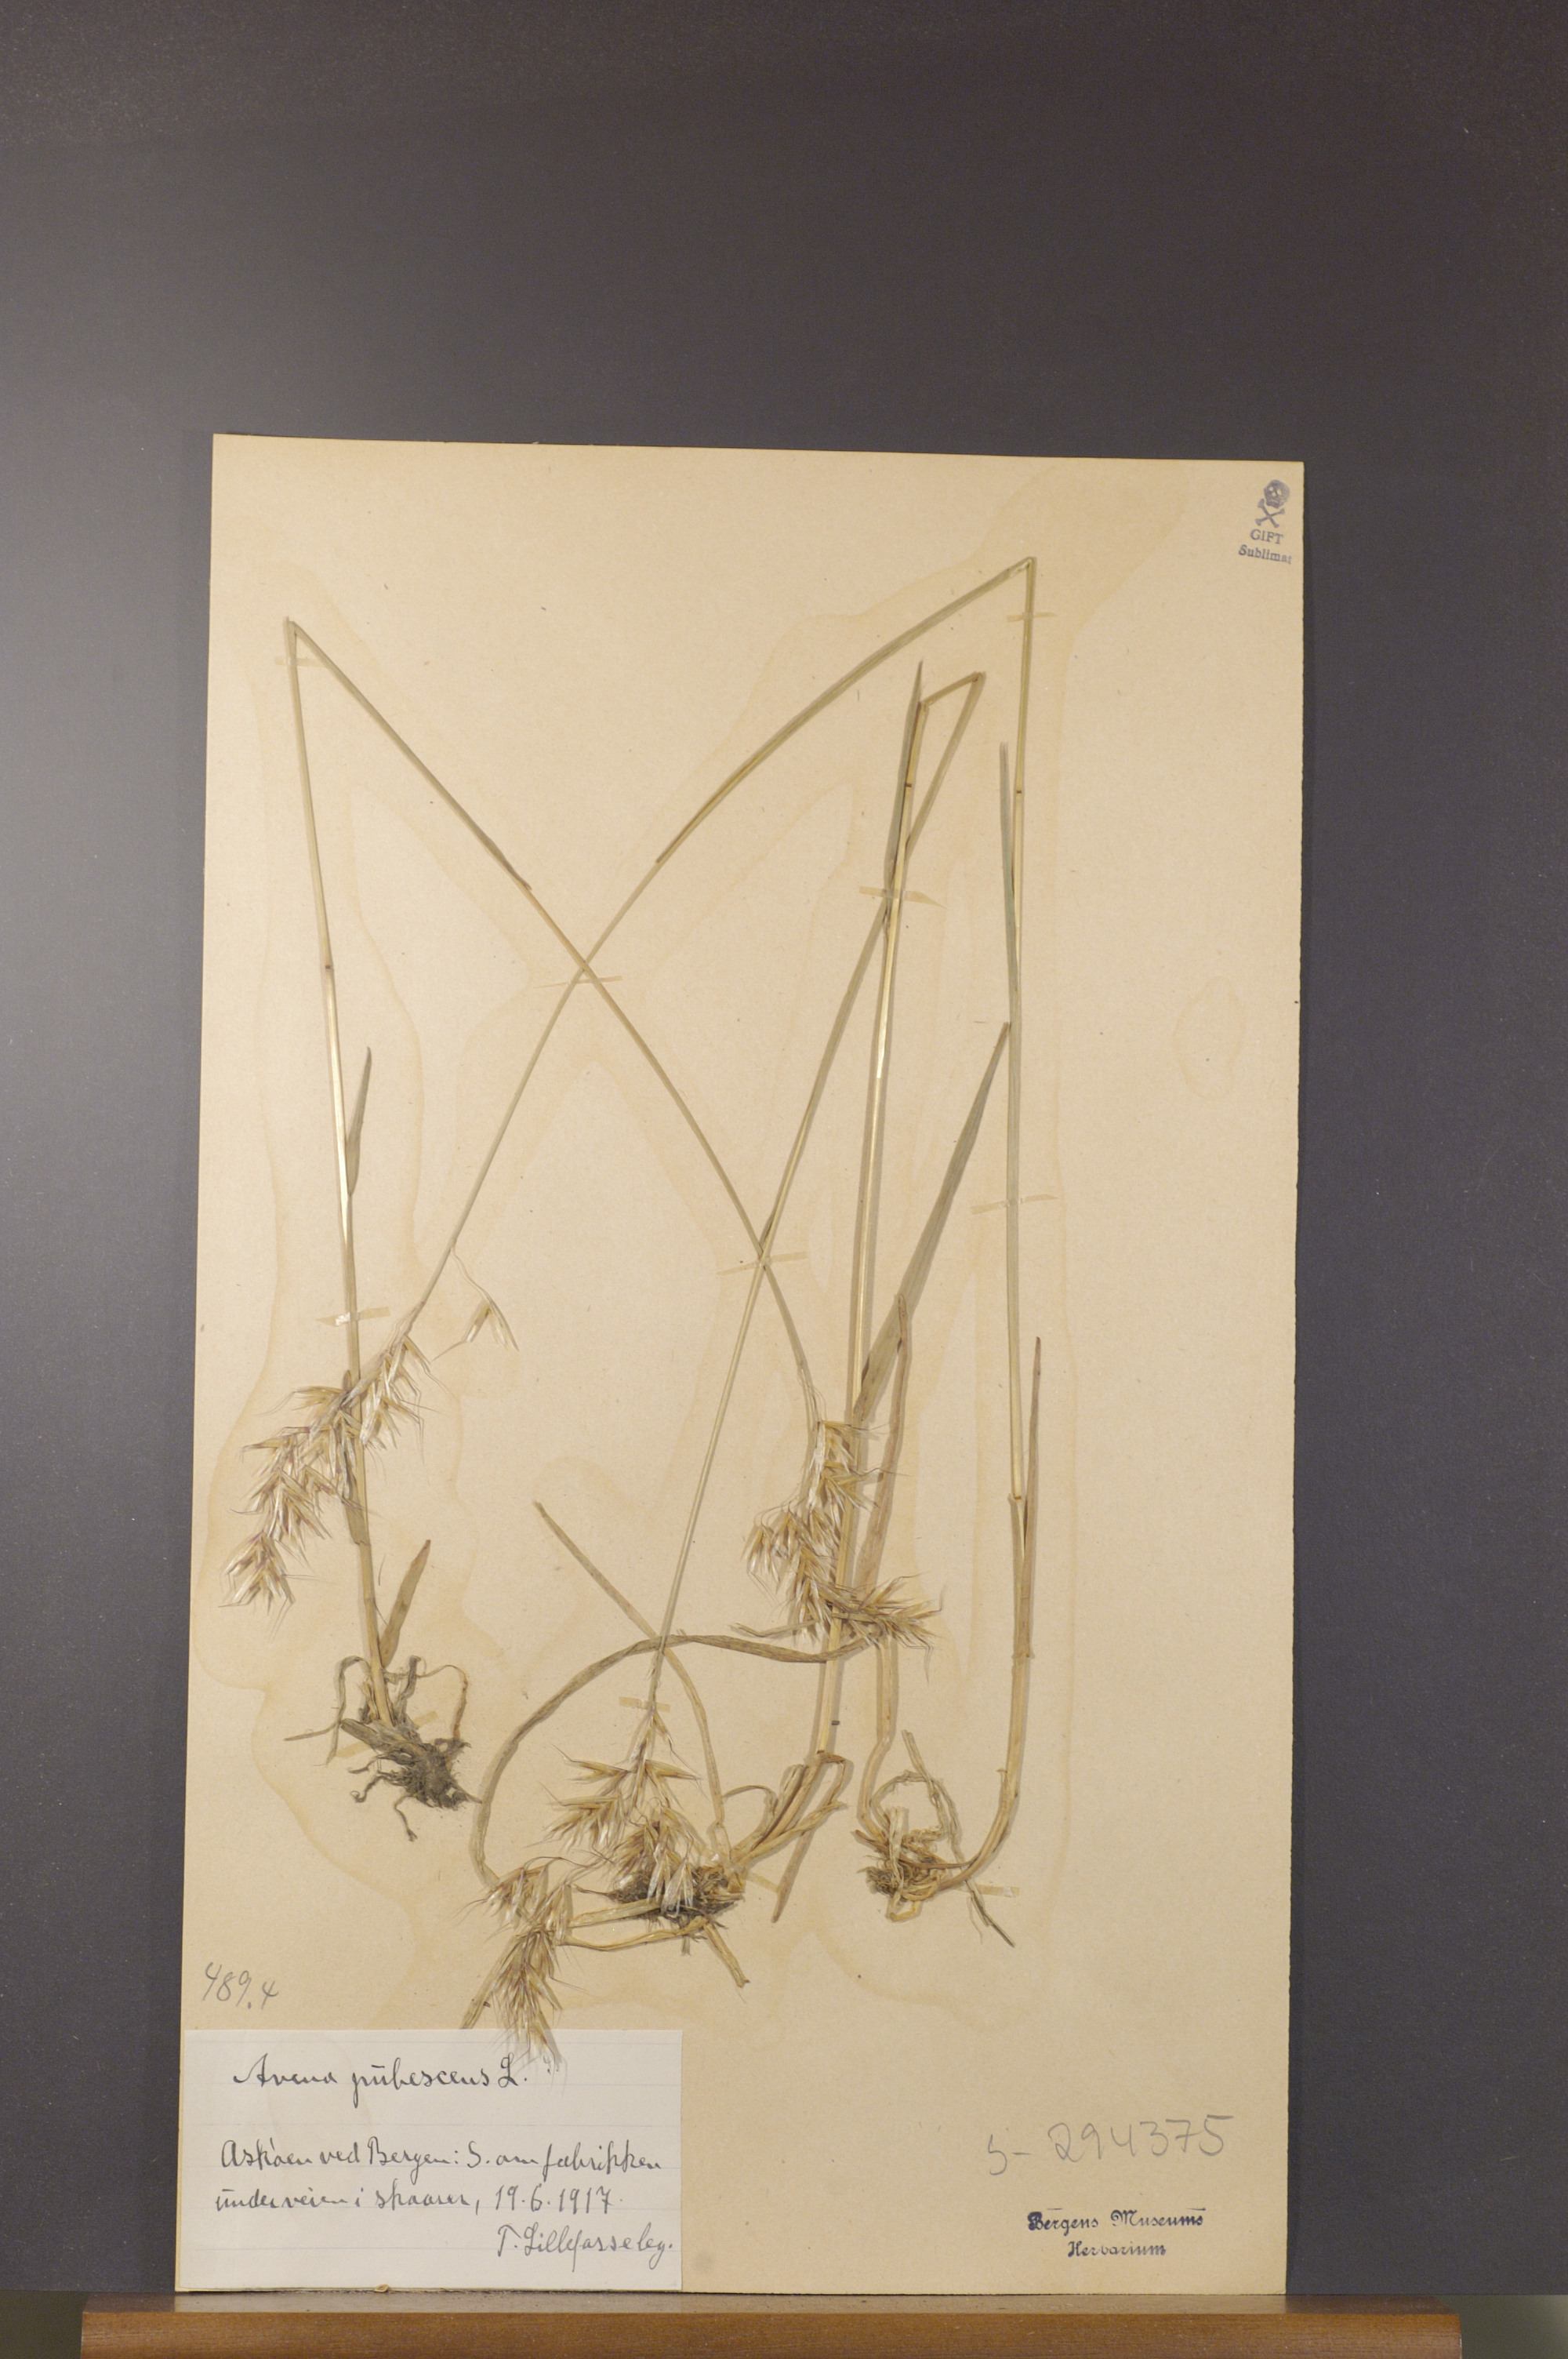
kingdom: Plantae
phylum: Tracheophyta
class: Liliopsida
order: Poales
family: Poaceae
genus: Avenula
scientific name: Avenula pubescens
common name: Downy alpine oatgrass
